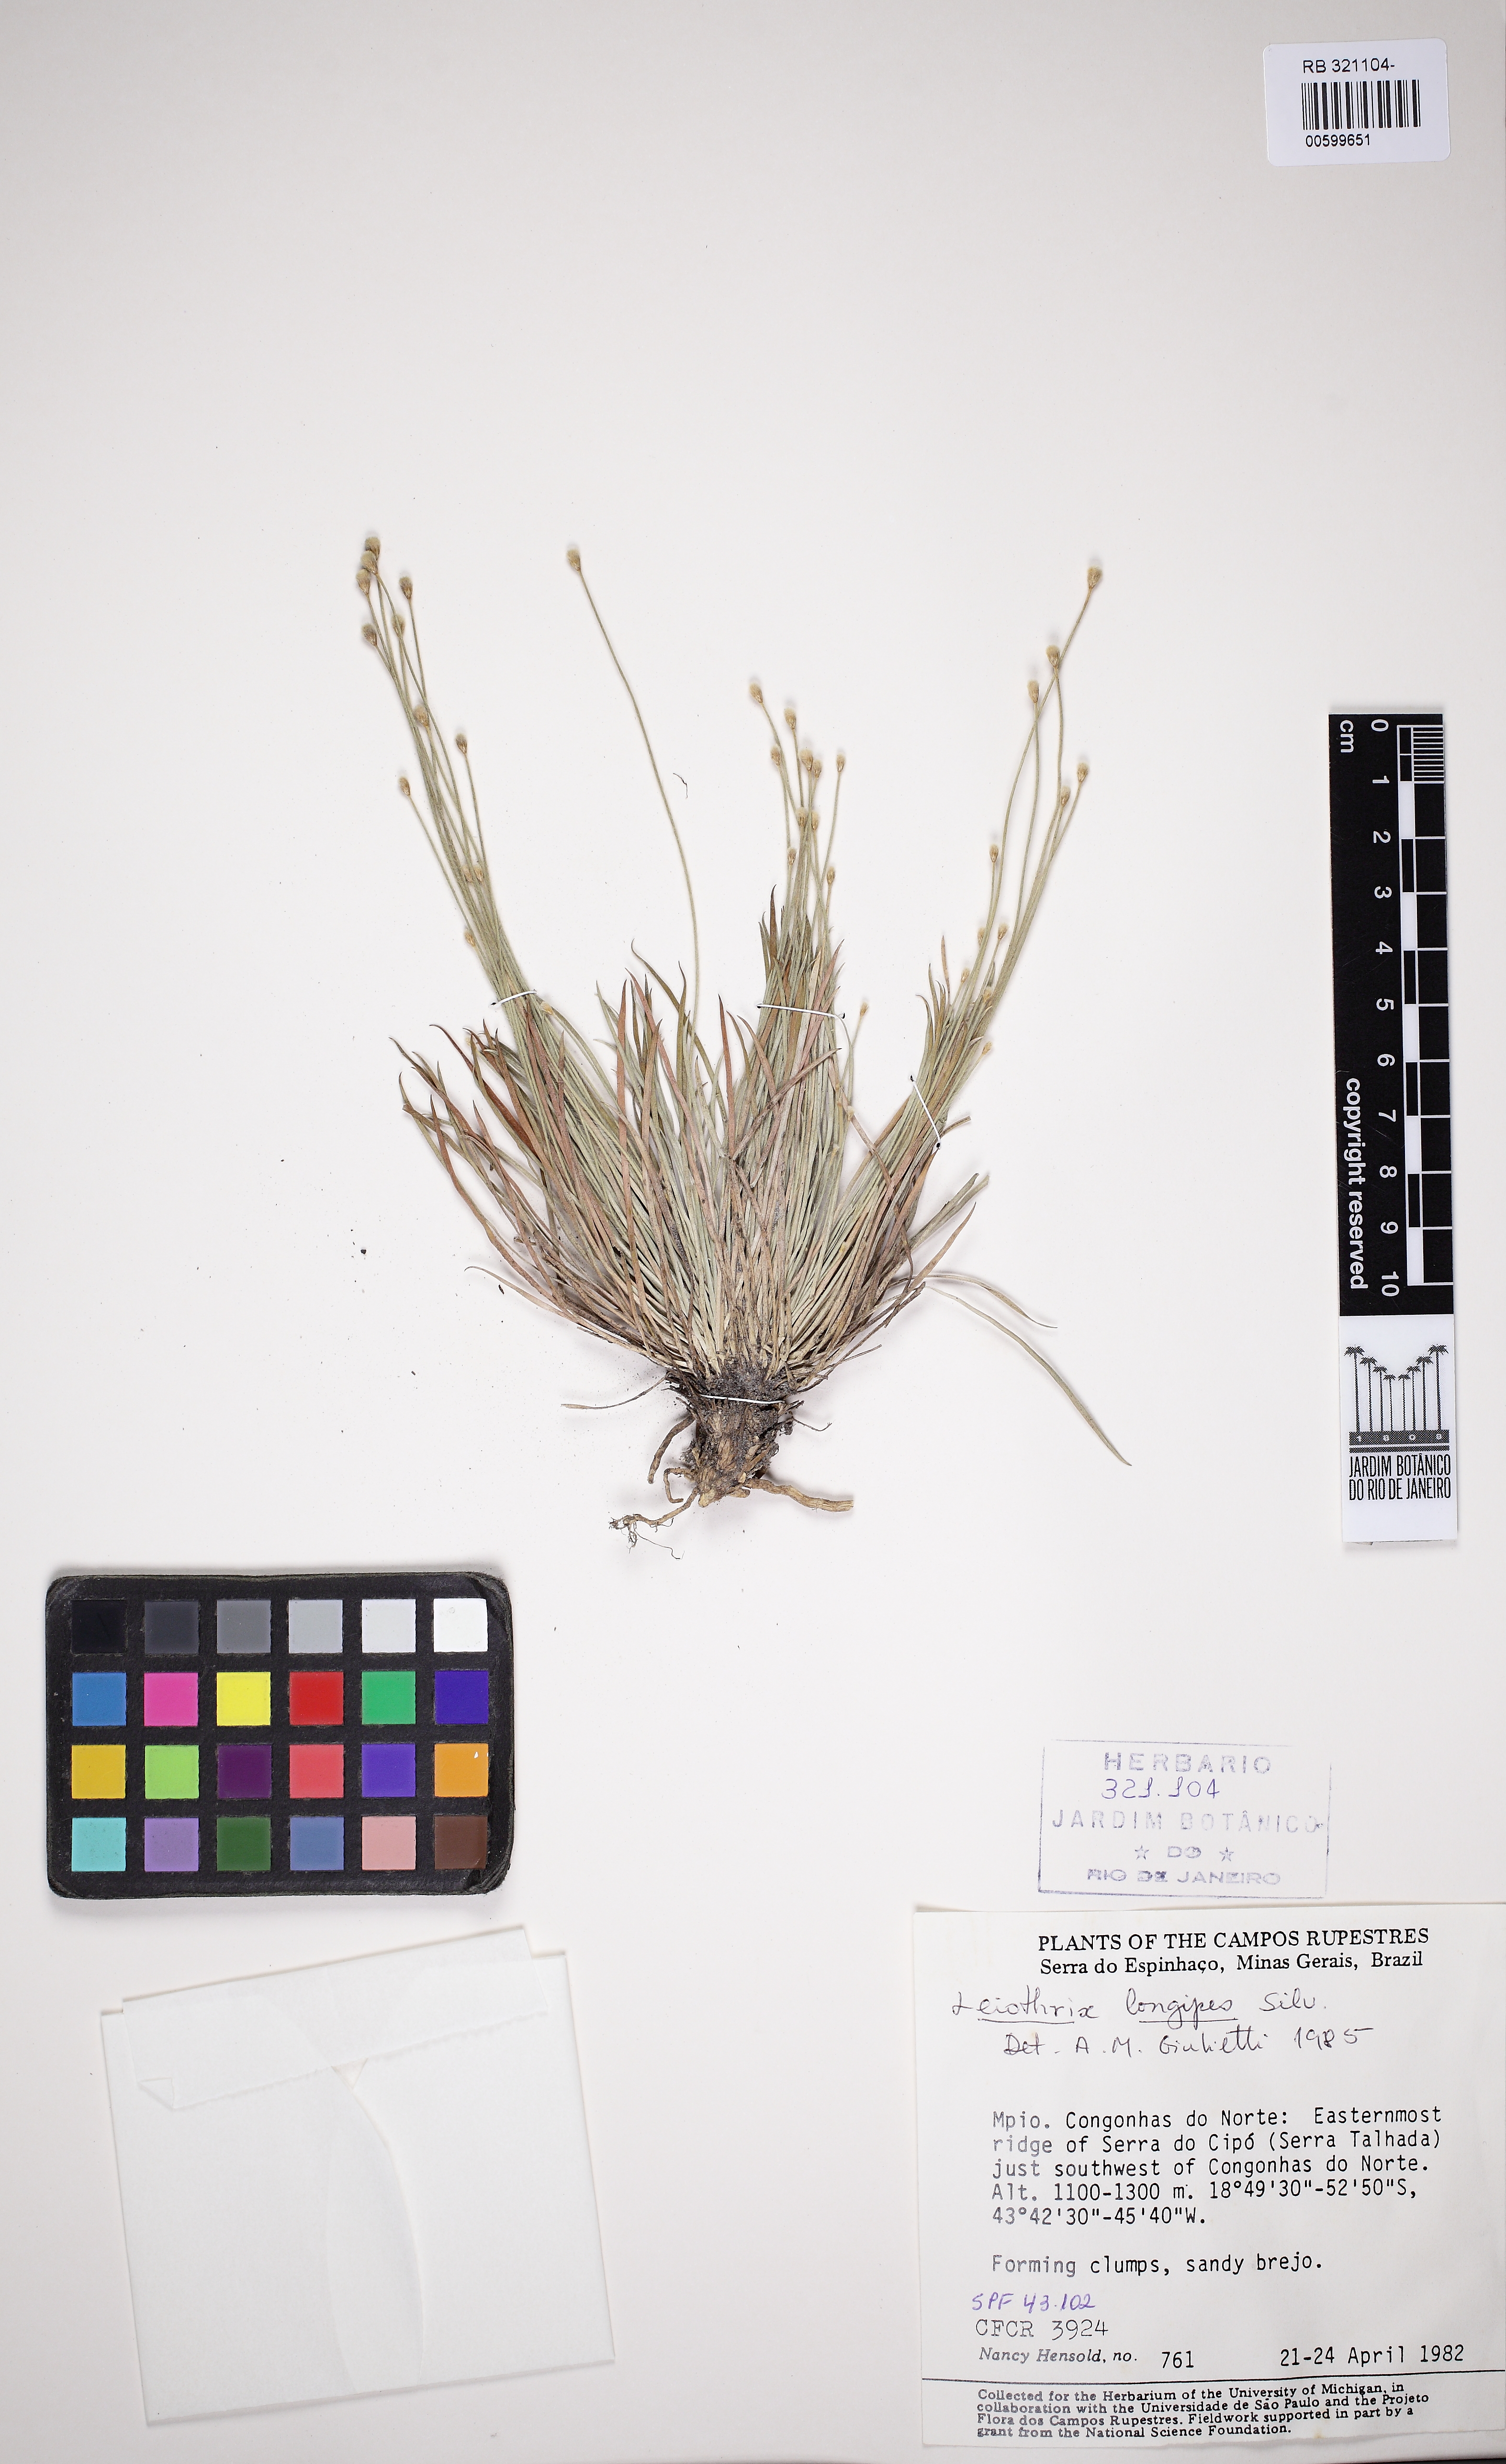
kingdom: Plantae
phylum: Tracheophyta
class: Liliopsida
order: Poales
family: Eriocaulaceae
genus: Leiothrix
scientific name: Leiothrix longipes
